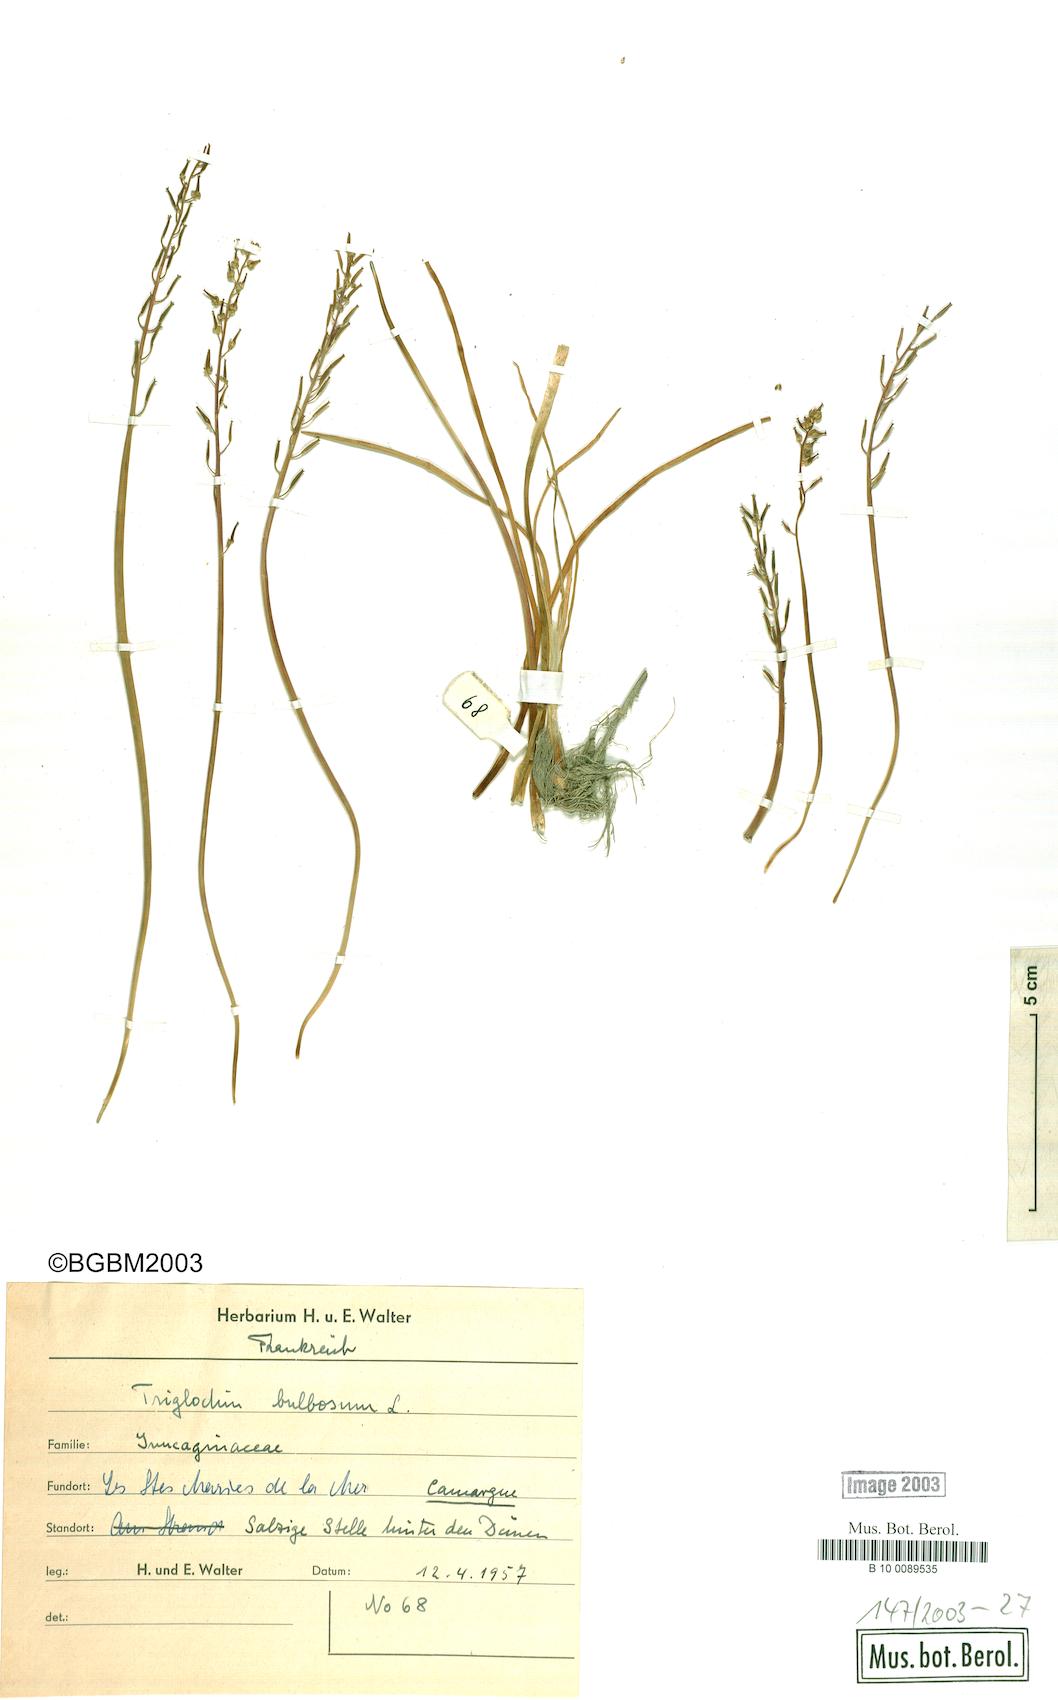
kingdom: Plantae
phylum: Tracheophyta
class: Liliopsida
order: Alismatales
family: Juncaginaceae
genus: Triglochin
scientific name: Triglochin bulbosa
